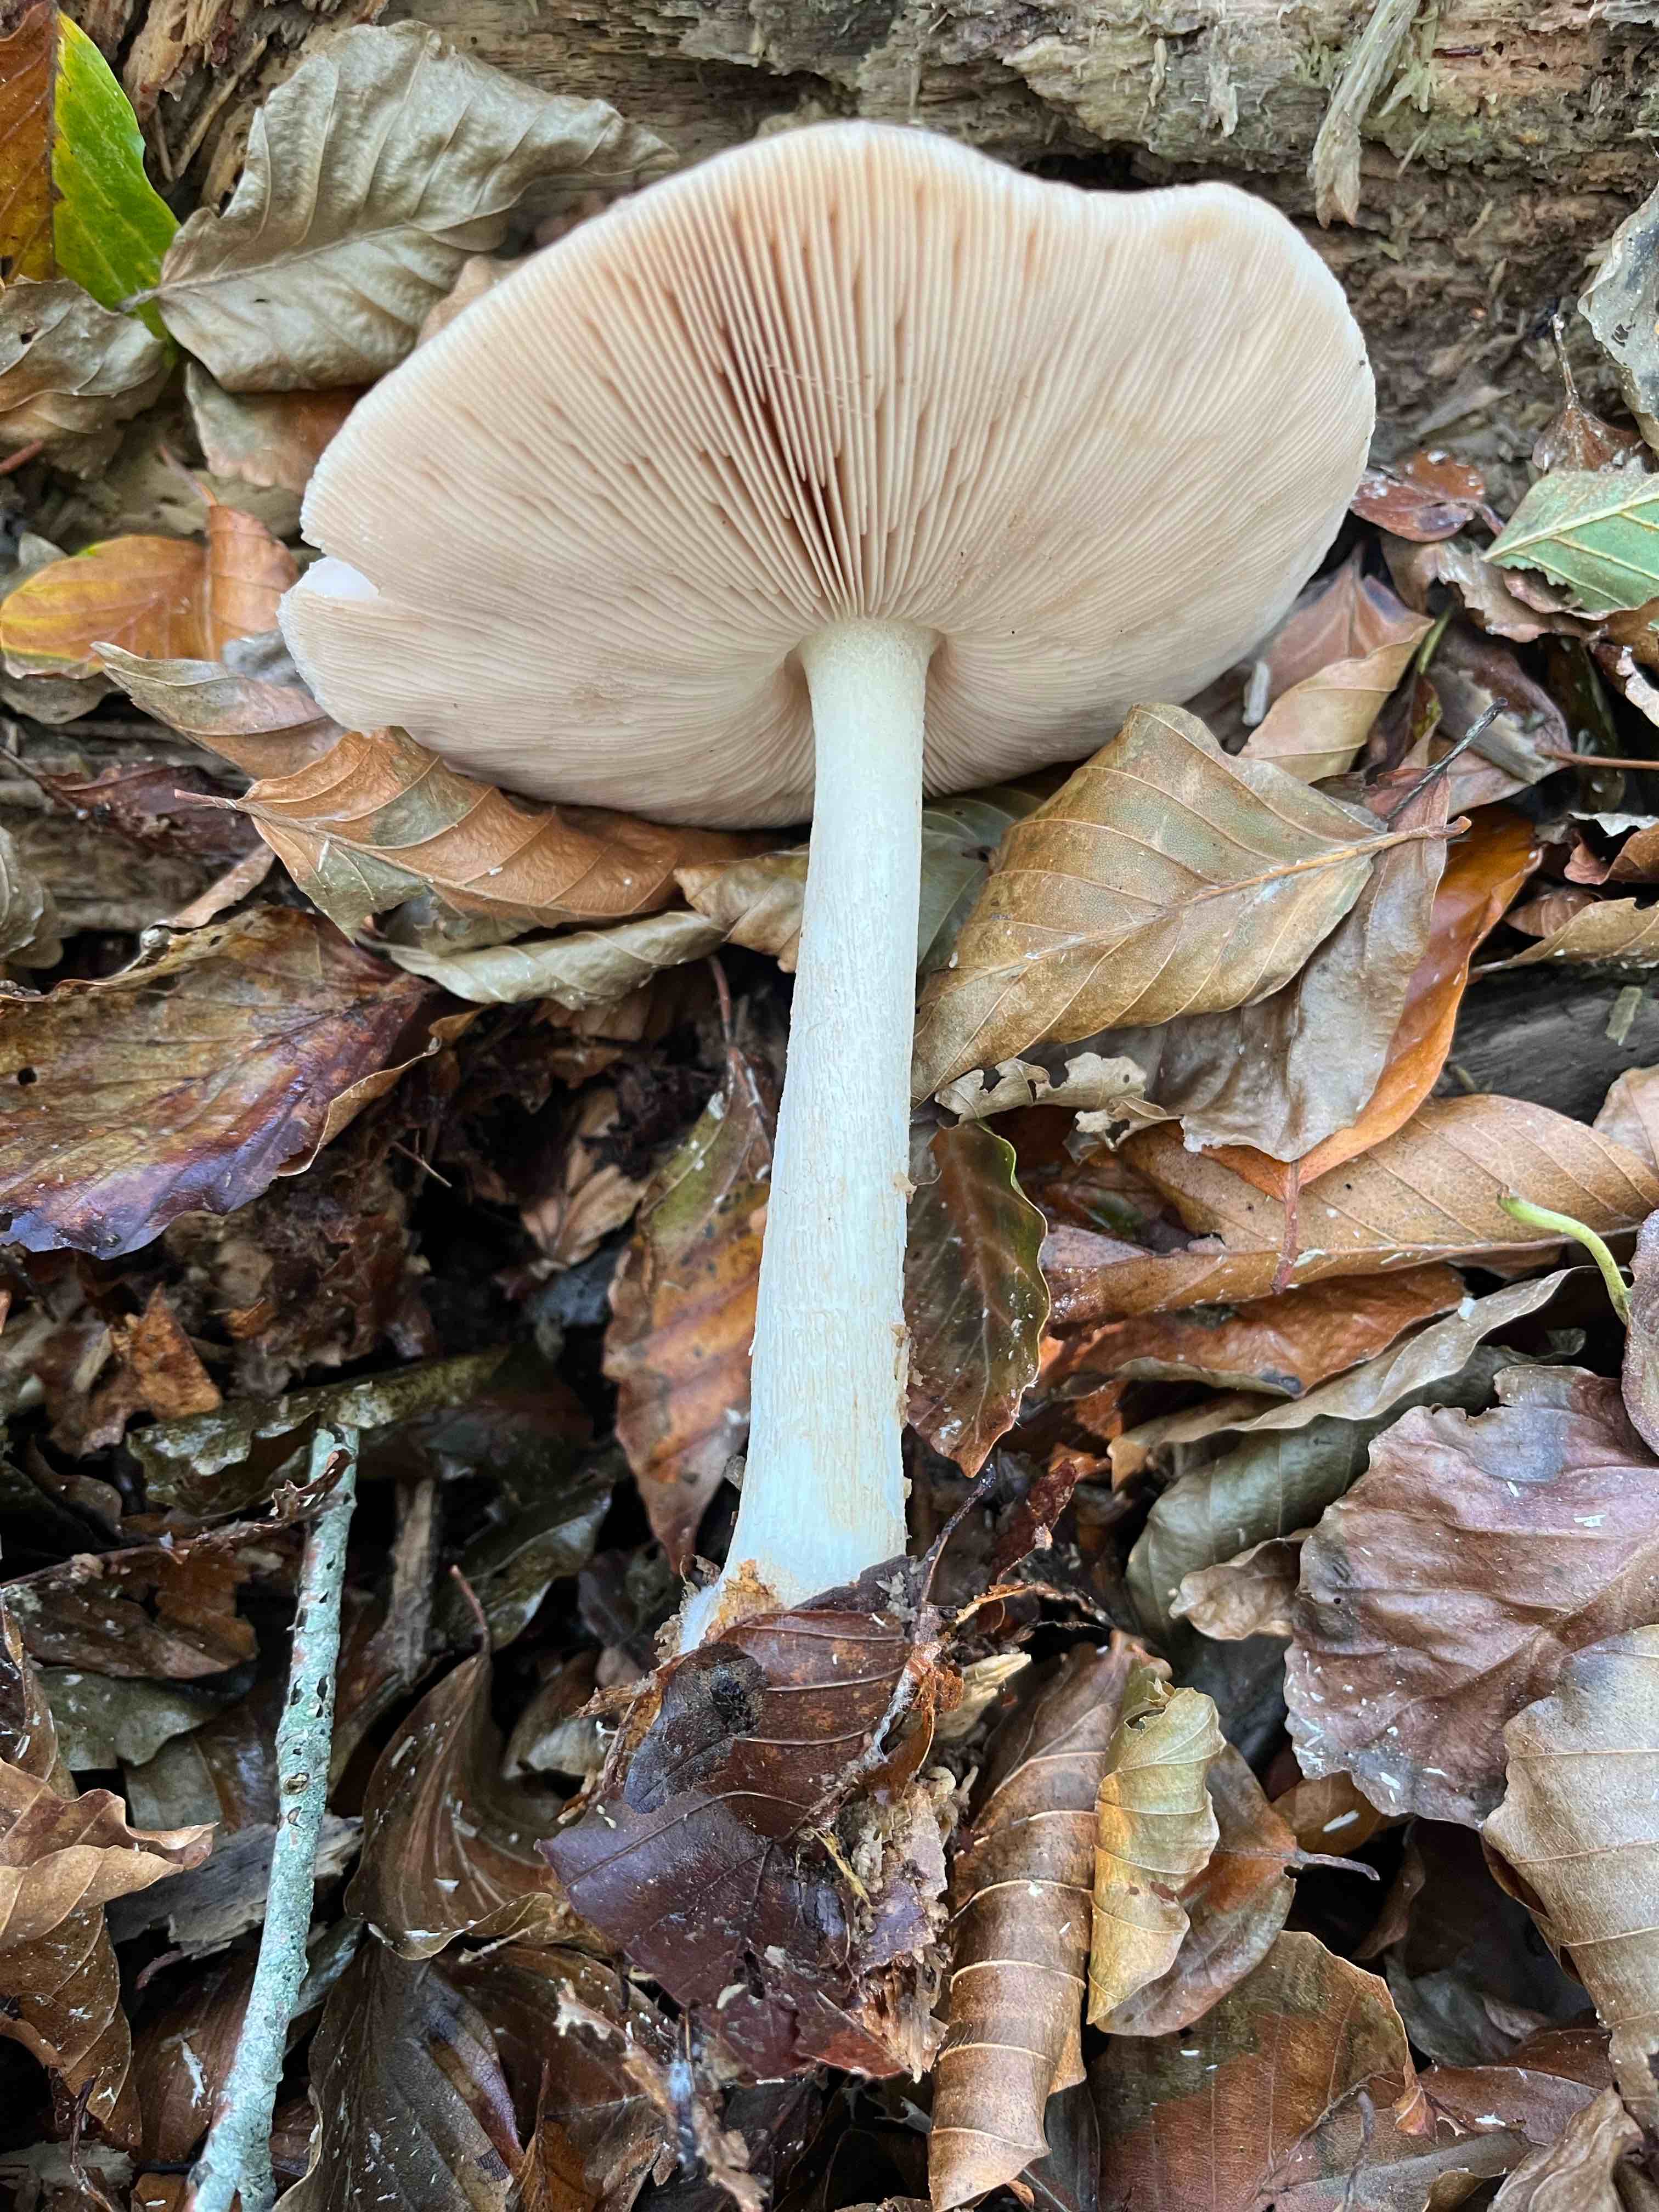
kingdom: Fungi
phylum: Basidiomycota
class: Agaricomycetes
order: Agaricales
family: Pluteaceae
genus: Pluteus
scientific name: Pluteus cervinus
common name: sodfarvet skærmhat
